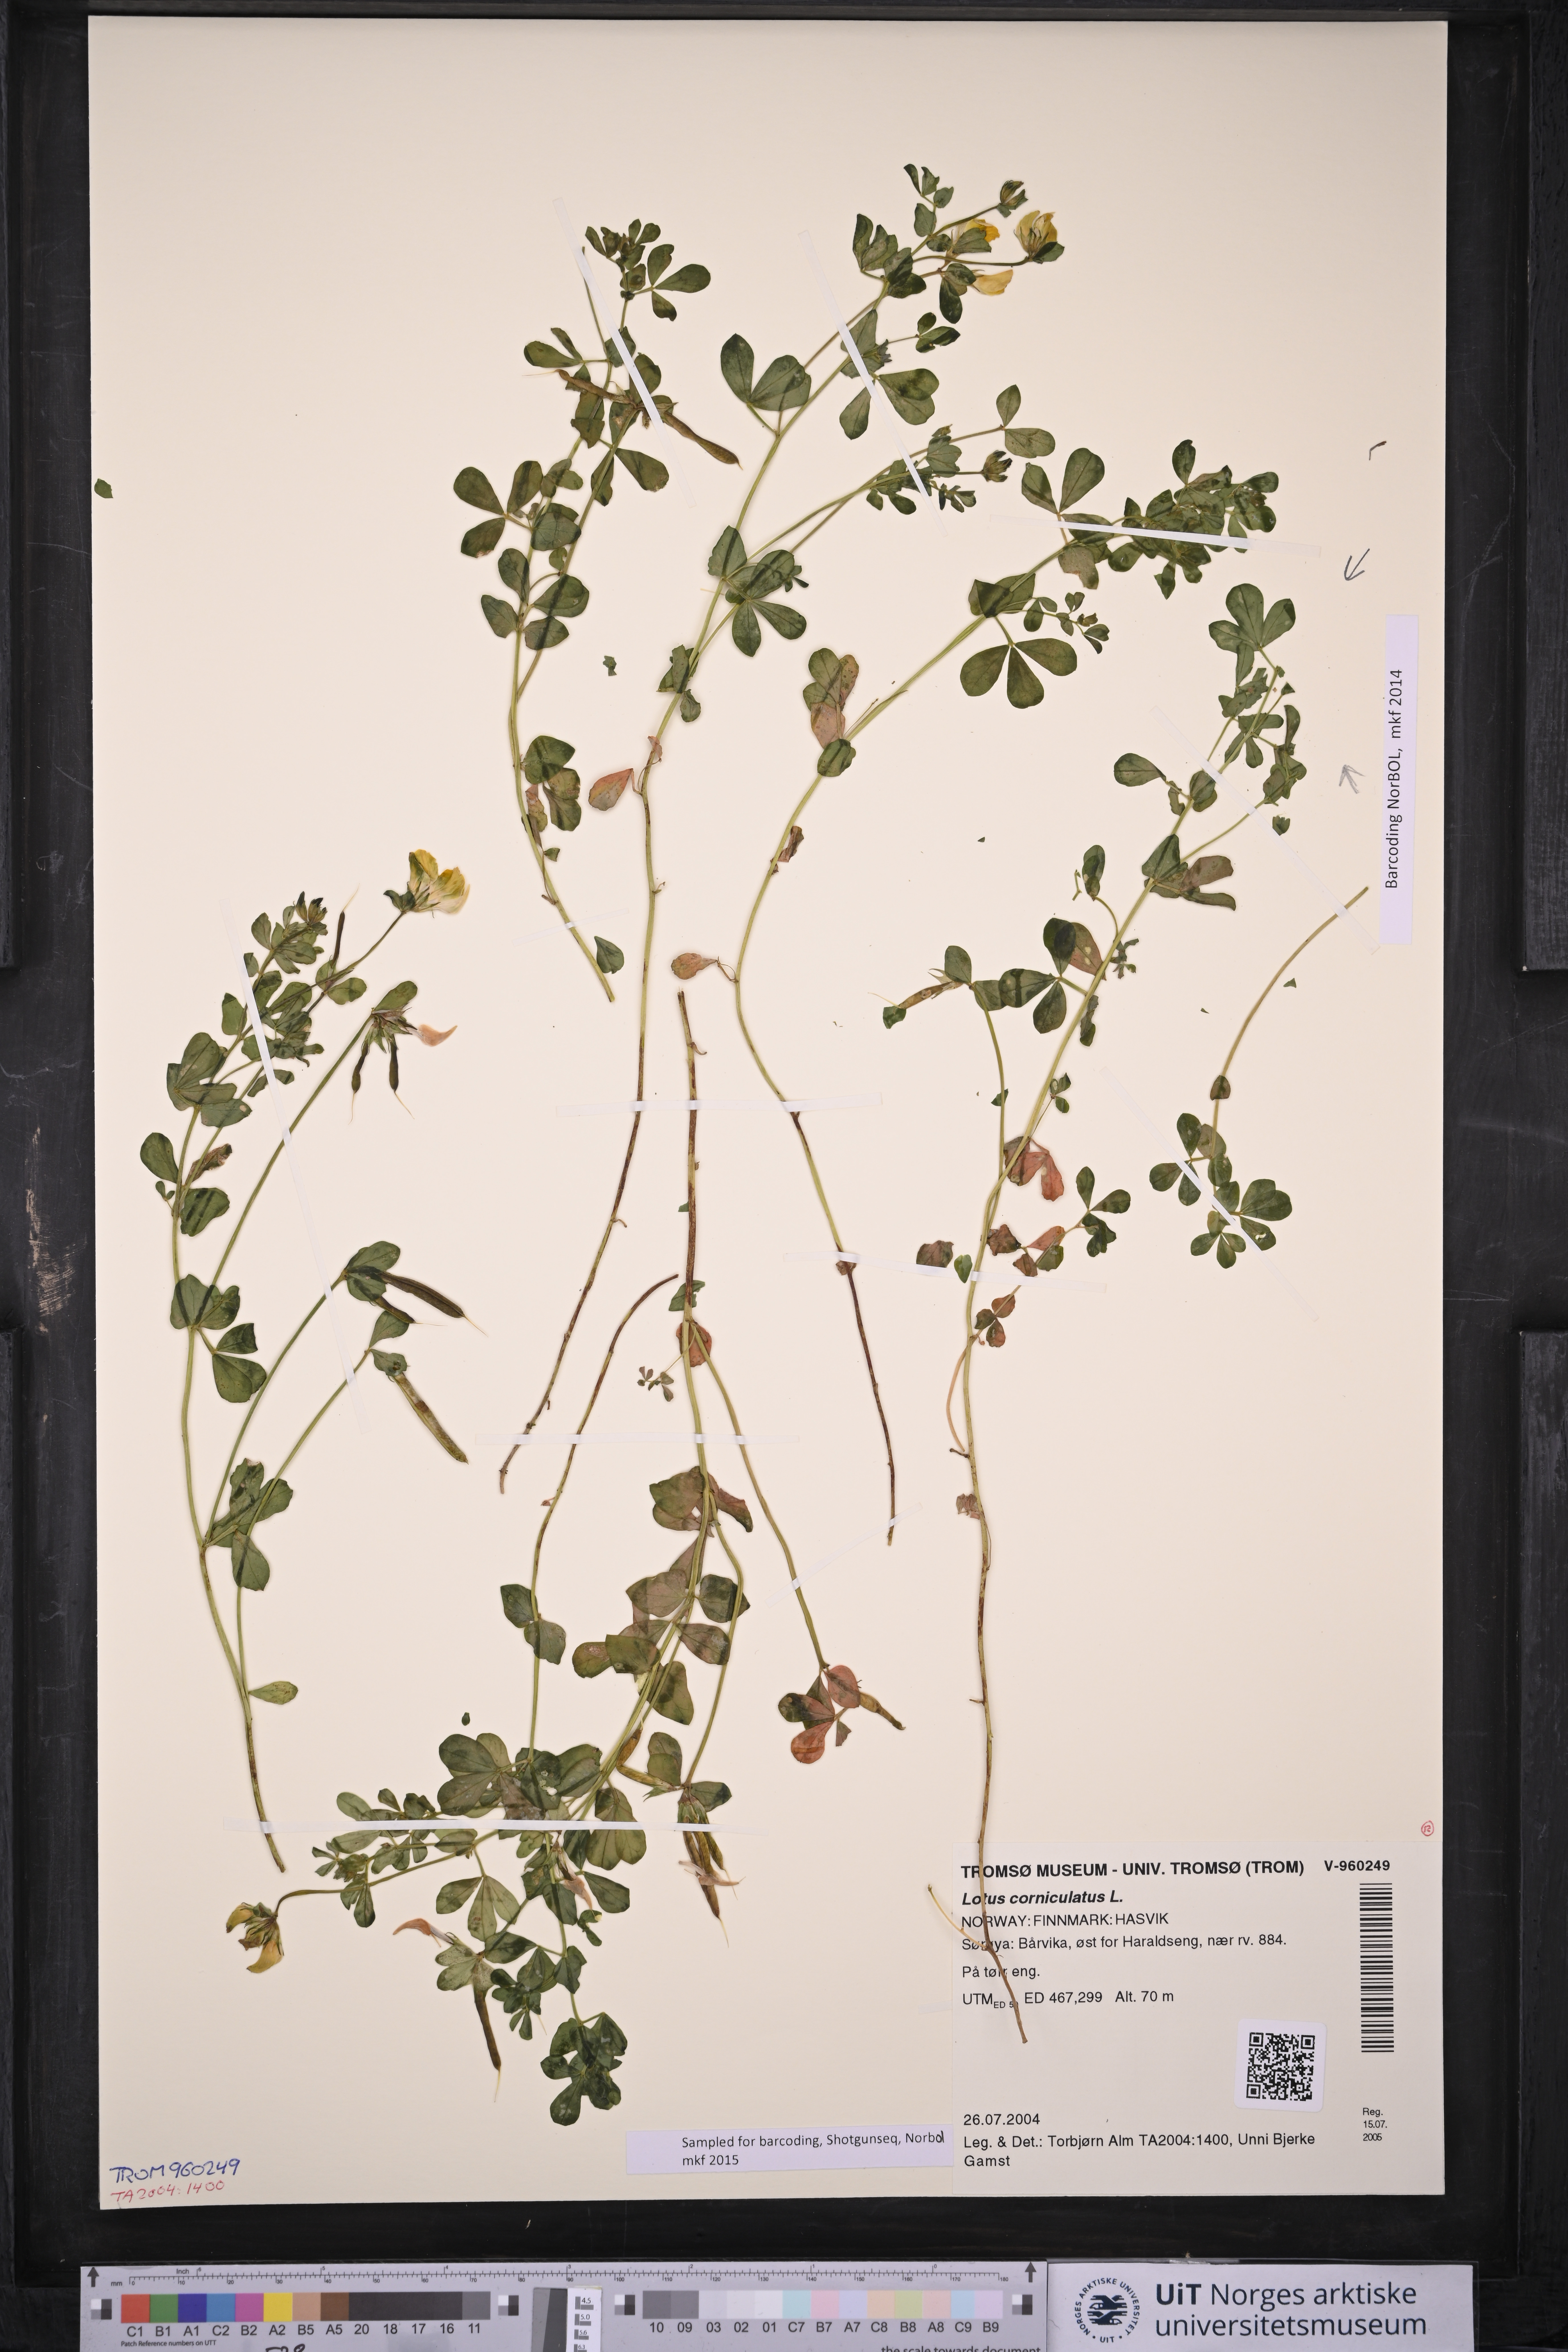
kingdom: Plantae
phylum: Tracheophyta
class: Magnoliopsida
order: Fabales
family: Fabaceae
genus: Lotus
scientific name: Lotus corniculatus
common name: Common bird's-foot-trefoil
